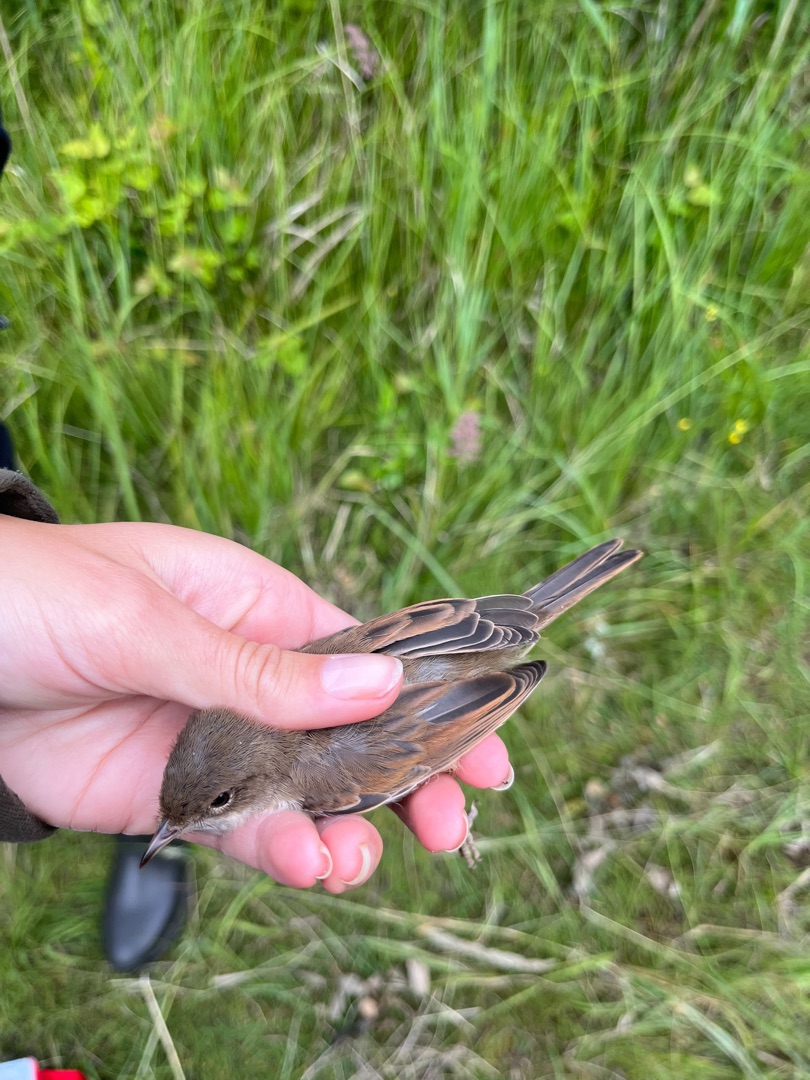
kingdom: Animalia
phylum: Chordata
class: Aves
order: Passeriformes
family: Sylviidae
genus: Sylvia
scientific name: Sylvia communis
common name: Tornsanger
